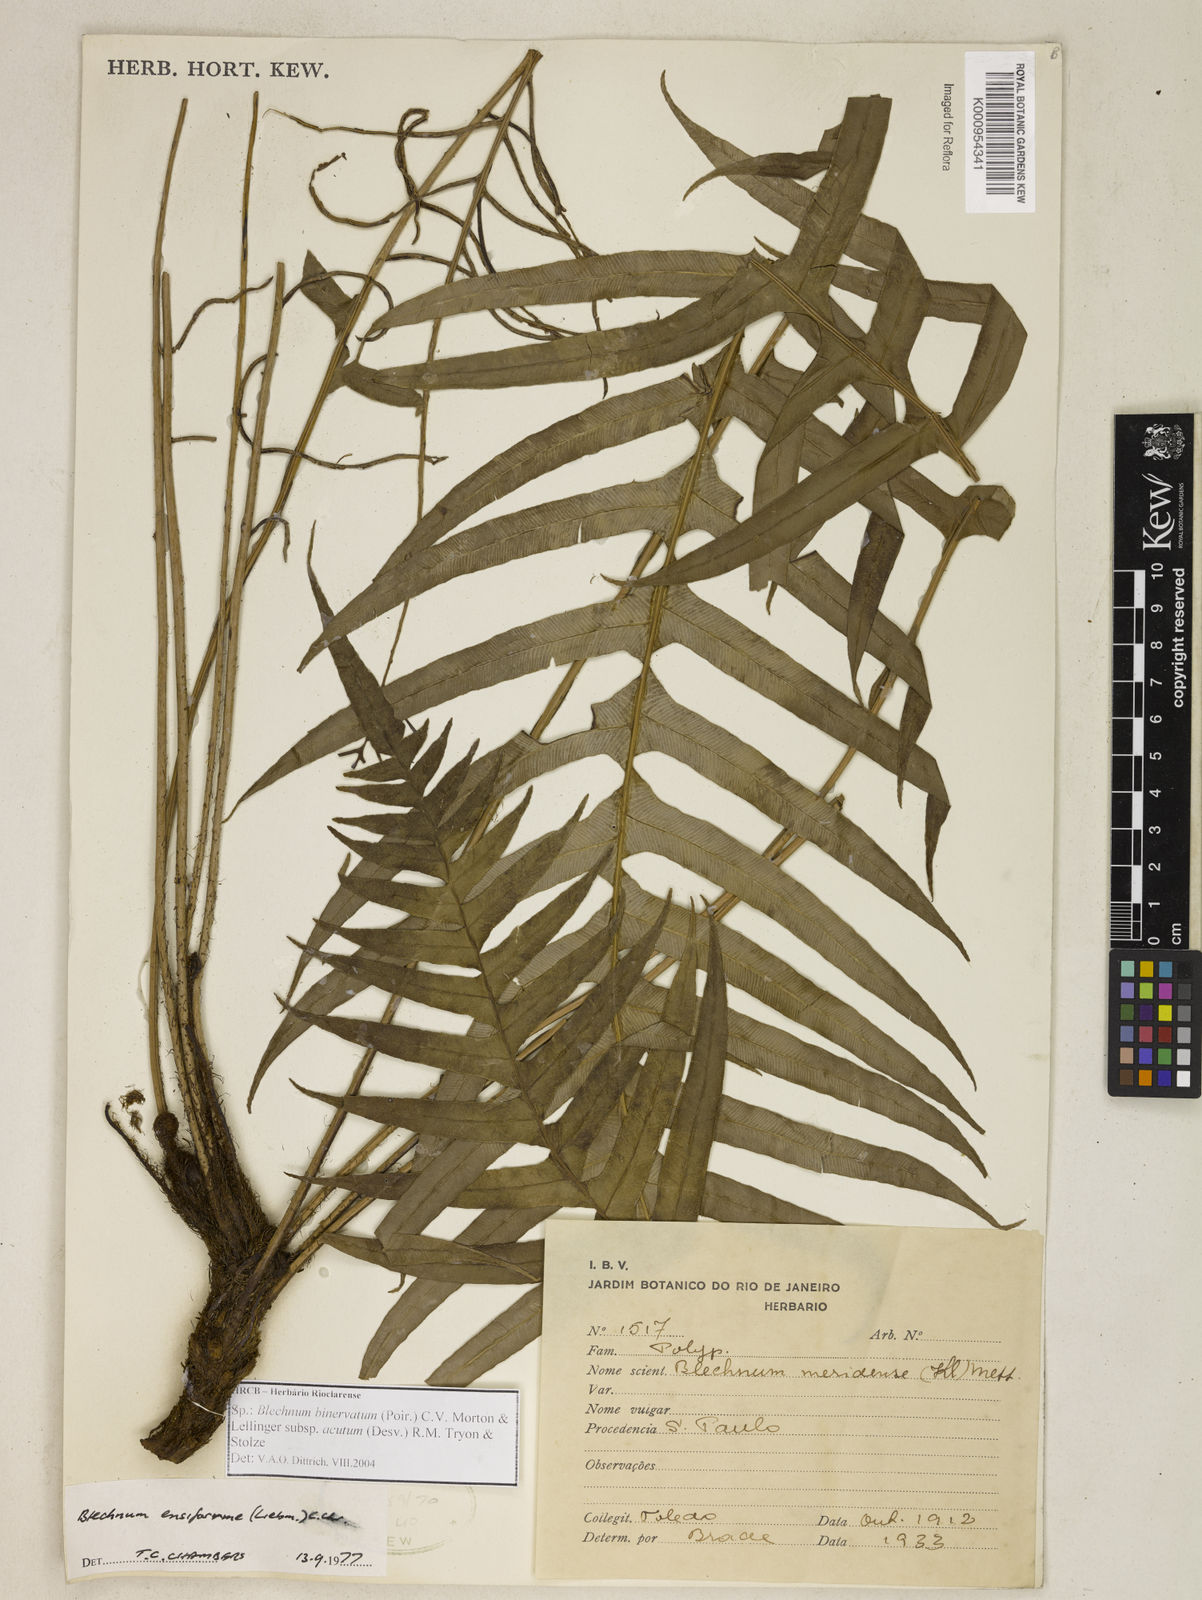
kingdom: Plantae
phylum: Tracheophyta
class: Polypodiopsida
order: Polypodiales
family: Blechnaceae
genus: Lomaridium
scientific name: Lomaridium ensiforme
